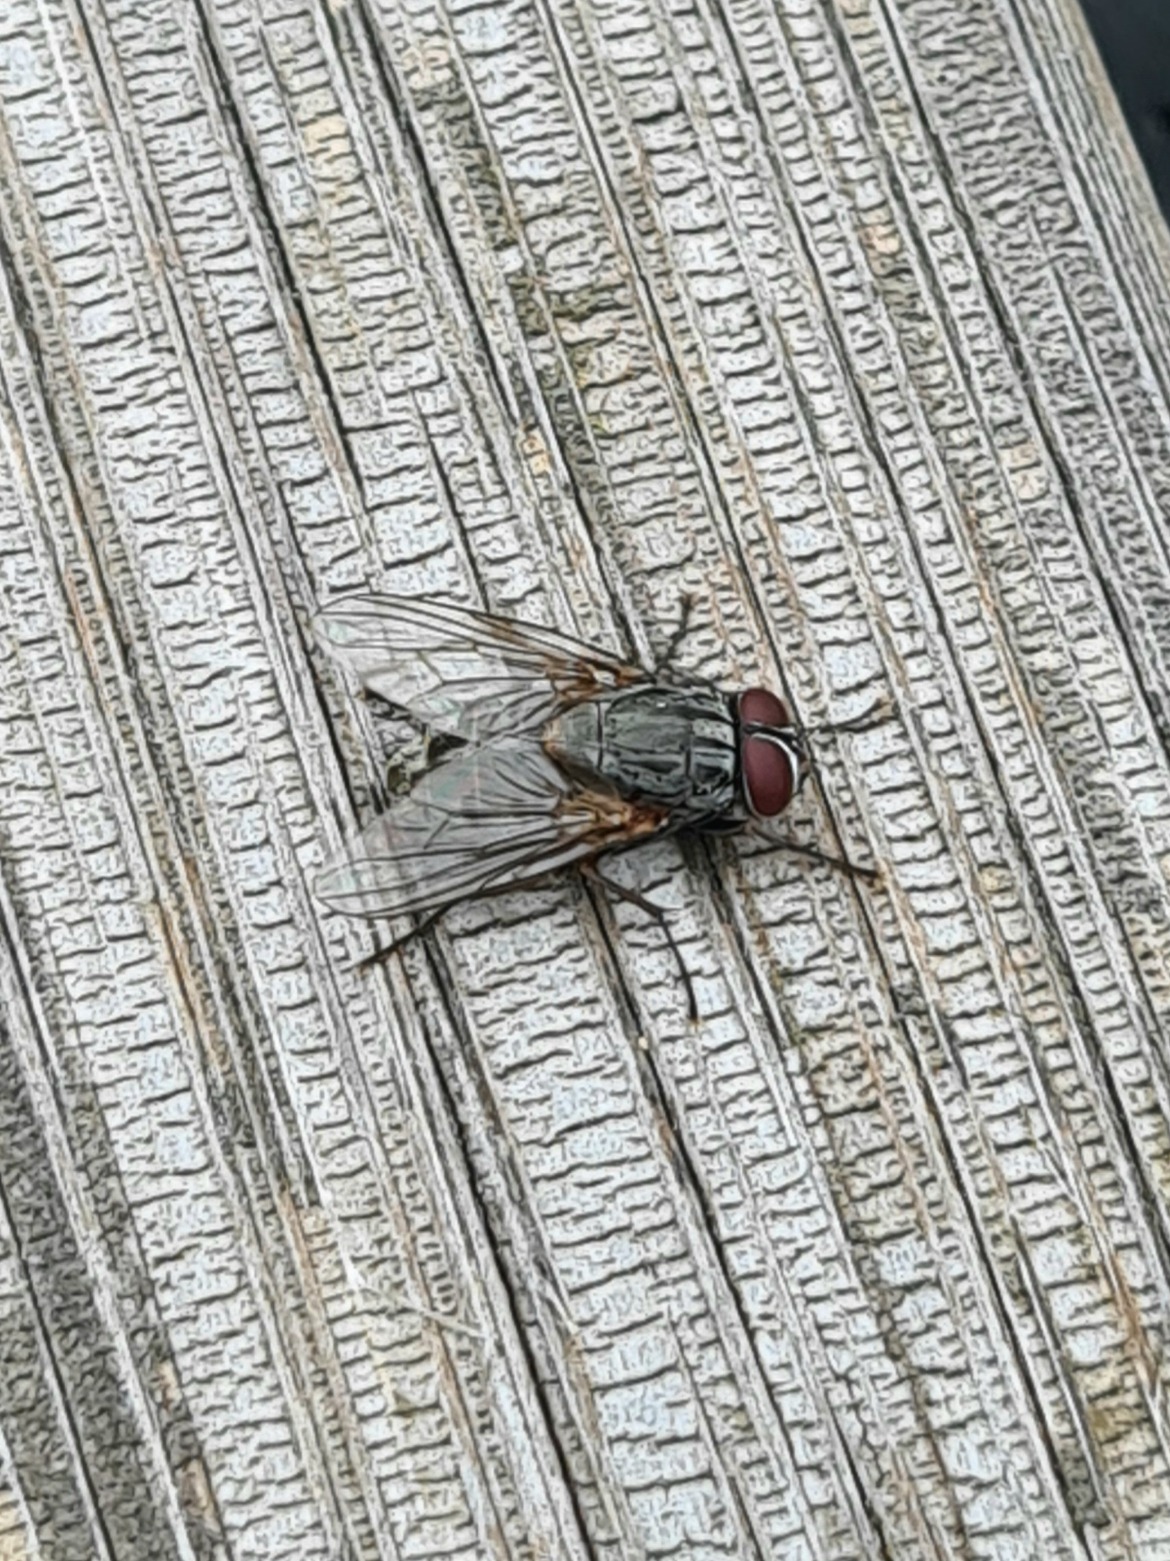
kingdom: Animalia
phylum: Arthropoda
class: Insecta
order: Diptera
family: Muscidae
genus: Muscina
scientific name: Muscina levida
